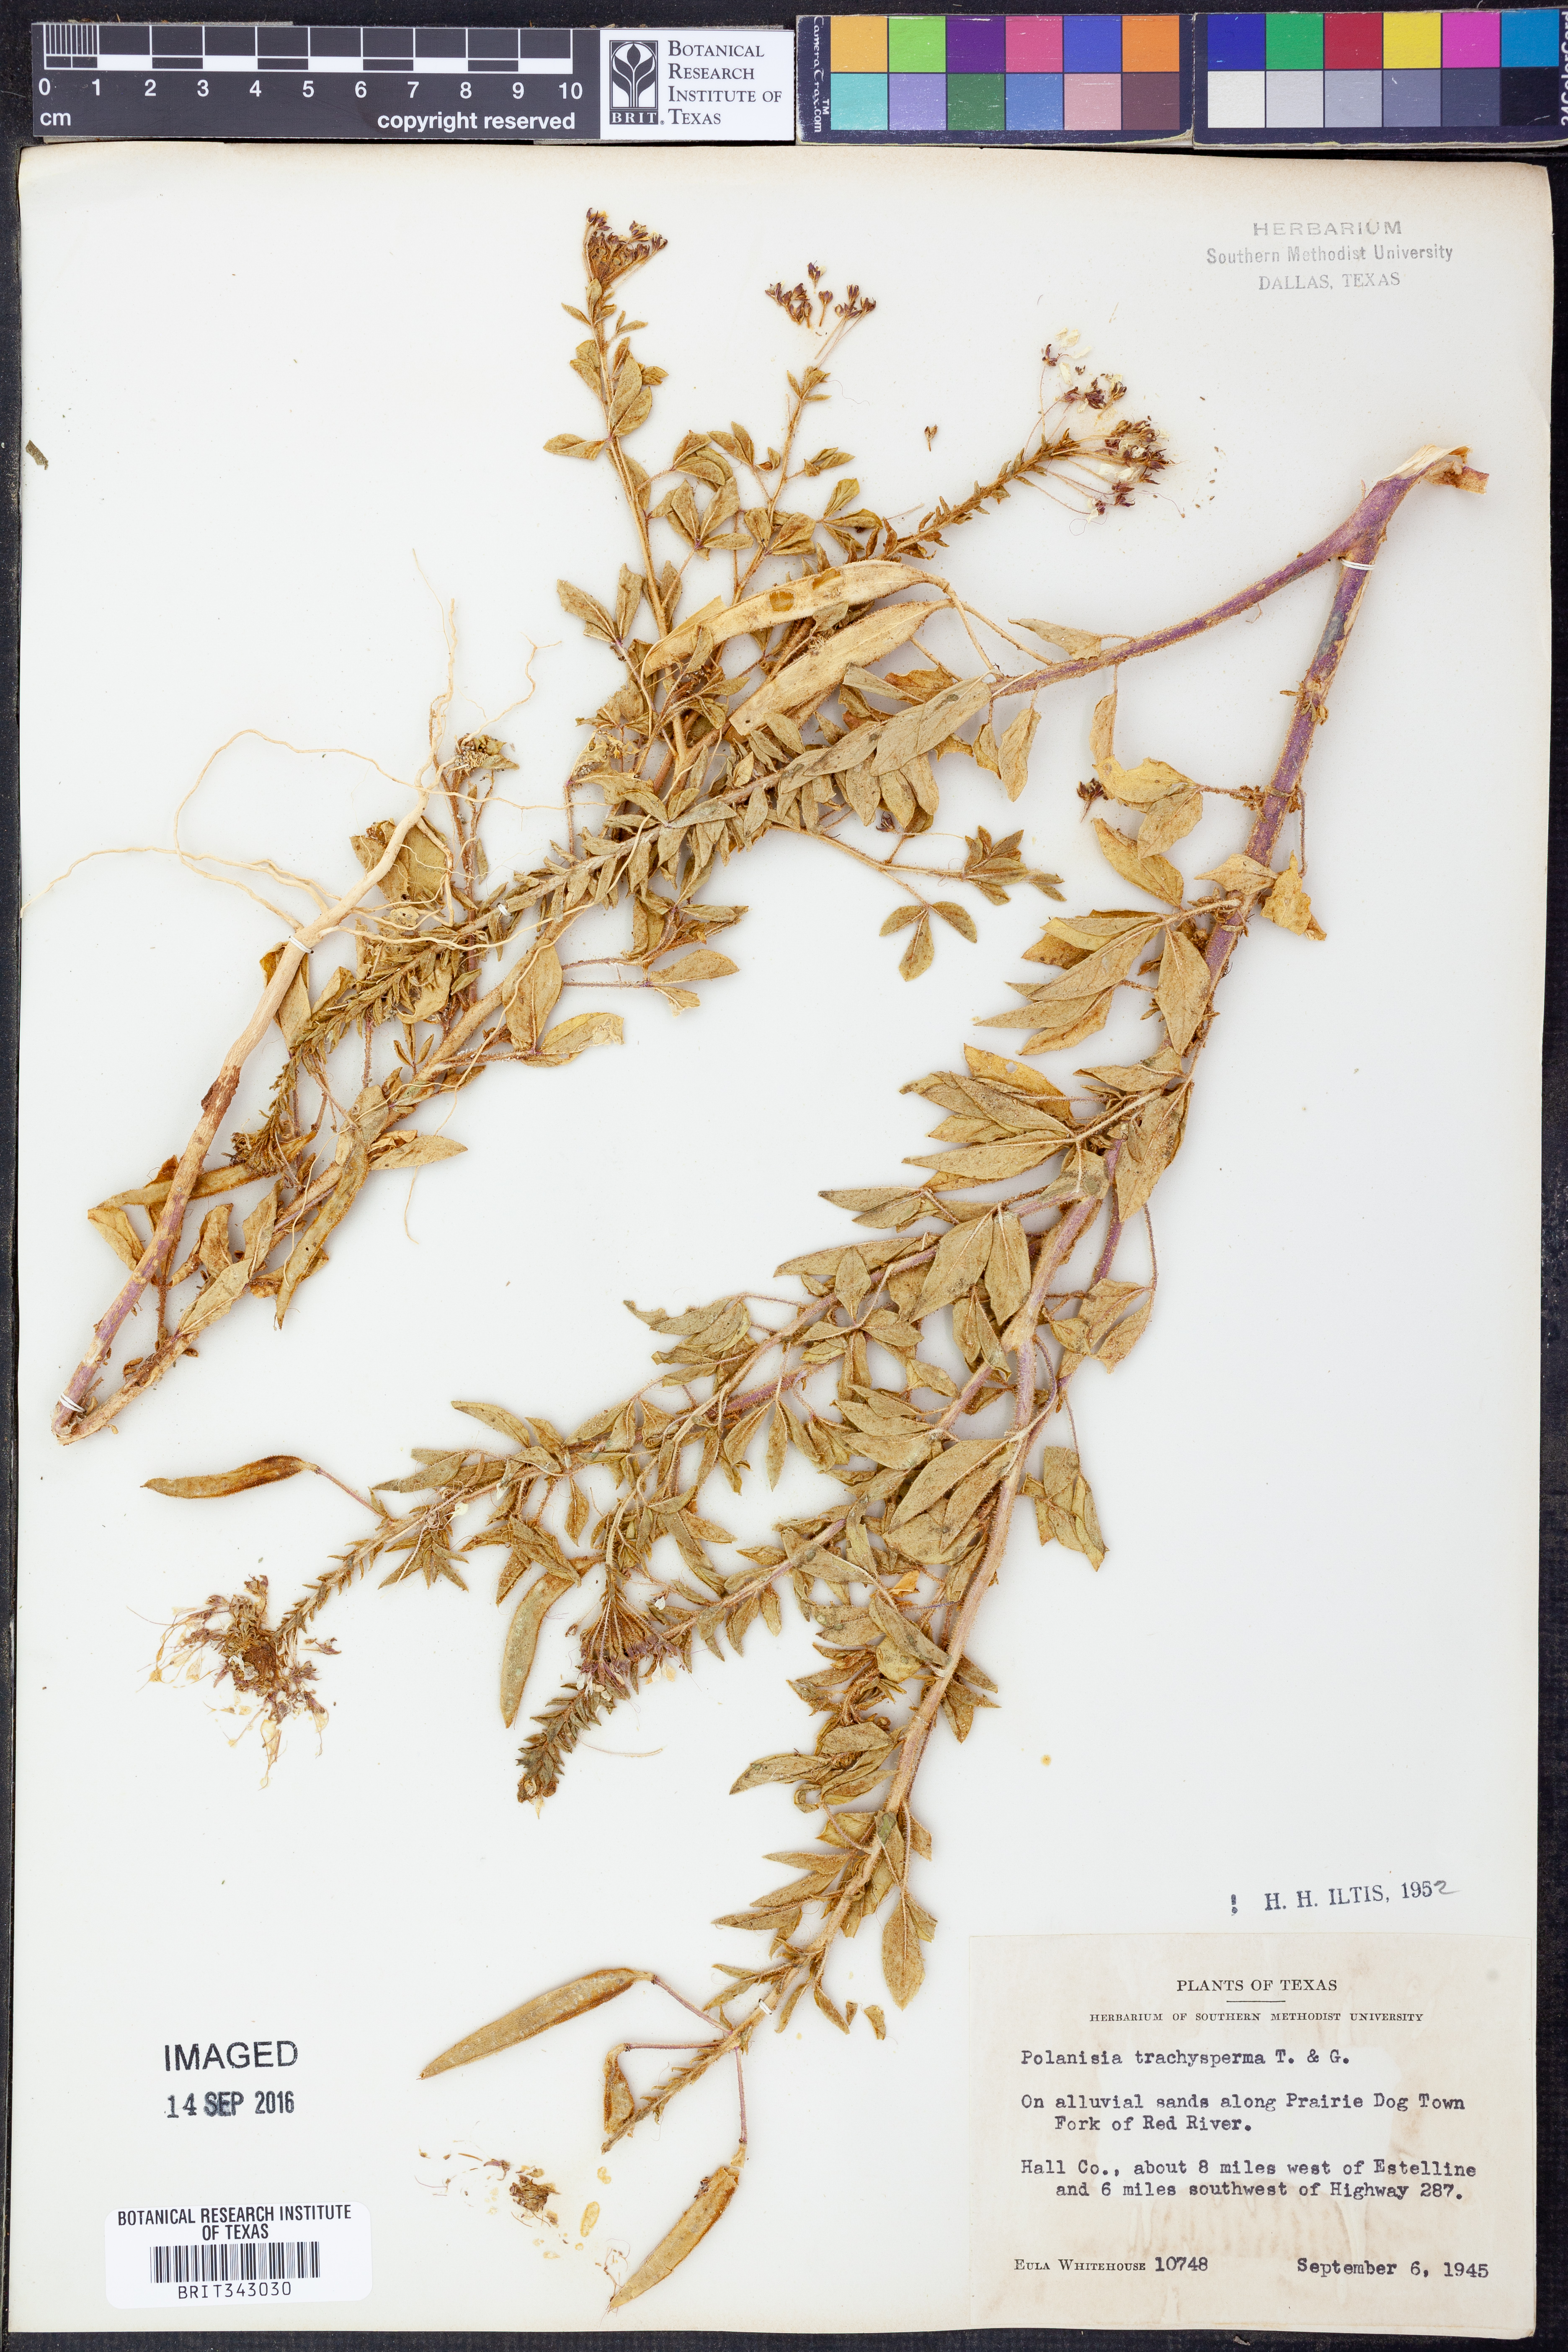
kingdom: Plantae
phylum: Tracheophyta
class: Magnoliopsida
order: Brassicales
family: Cleomaceae
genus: Polanisia
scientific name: Polanisia trachysperma
